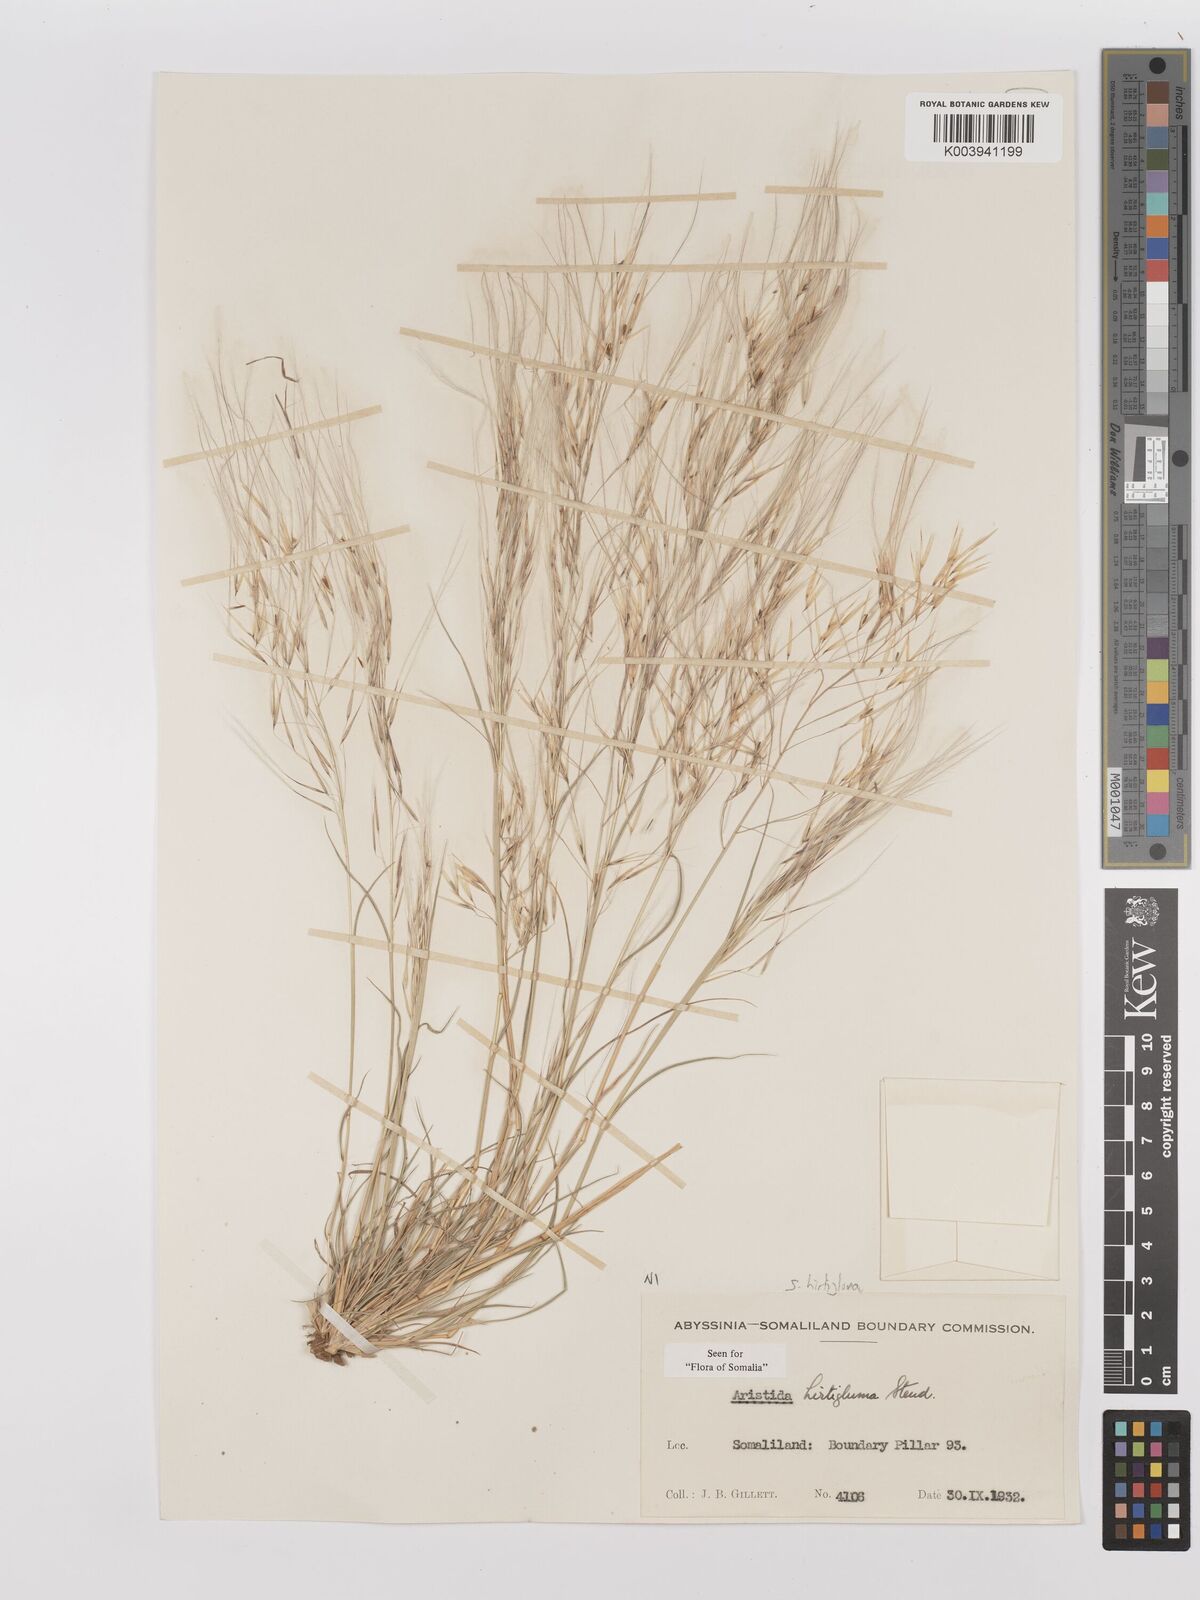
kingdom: Plantae
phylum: Tracheophyta
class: Liliopsida
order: Poales
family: Poaceae
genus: Stipagrostis
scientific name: Stipagrostis hirtigluma
